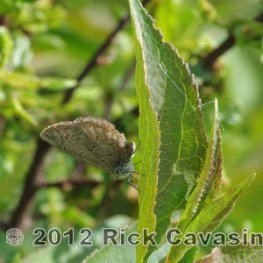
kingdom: Animalia
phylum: Arthropoda
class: Insecta
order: Lepidoptera
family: Lycaenidae
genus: Celastrina
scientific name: Celastrina lucia
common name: Northern Spring Azure
